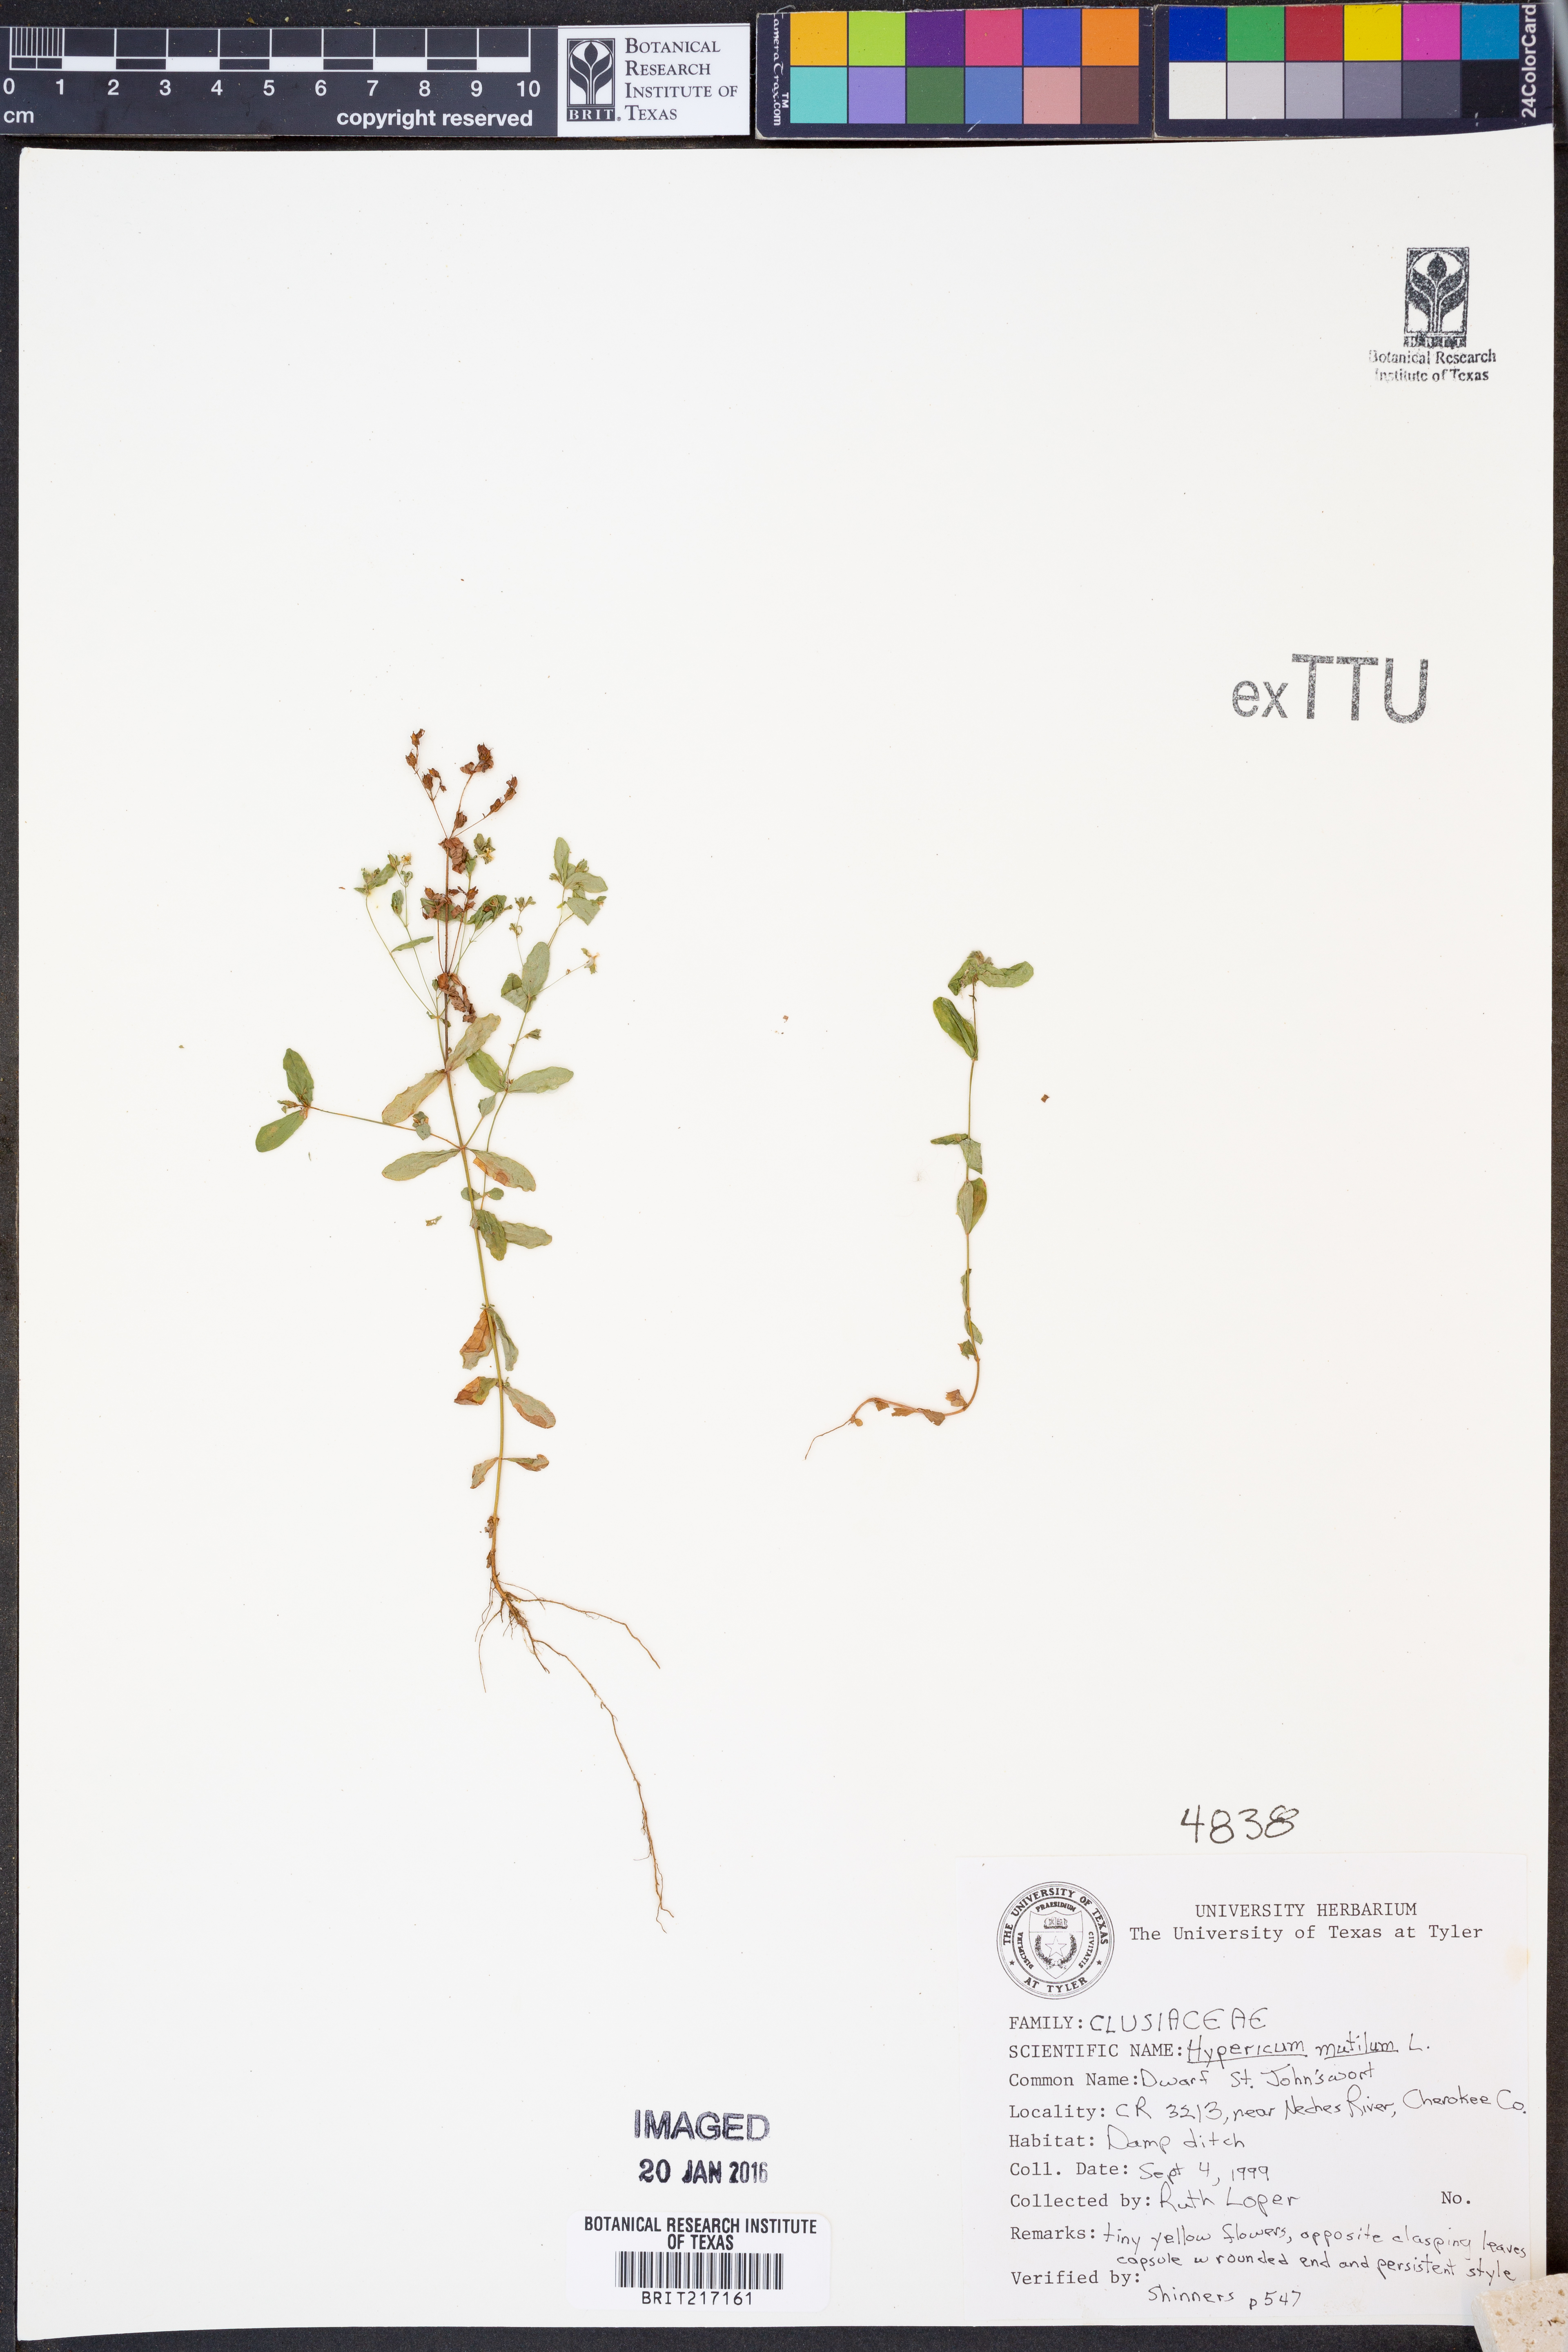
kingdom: Plantae
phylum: Tracheophyta
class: Magnoliopsida
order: Malpighiales
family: Hypericaceae
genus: Hypericum
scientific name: Hypericum mutilum
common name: Dwarf st. john's-wort
